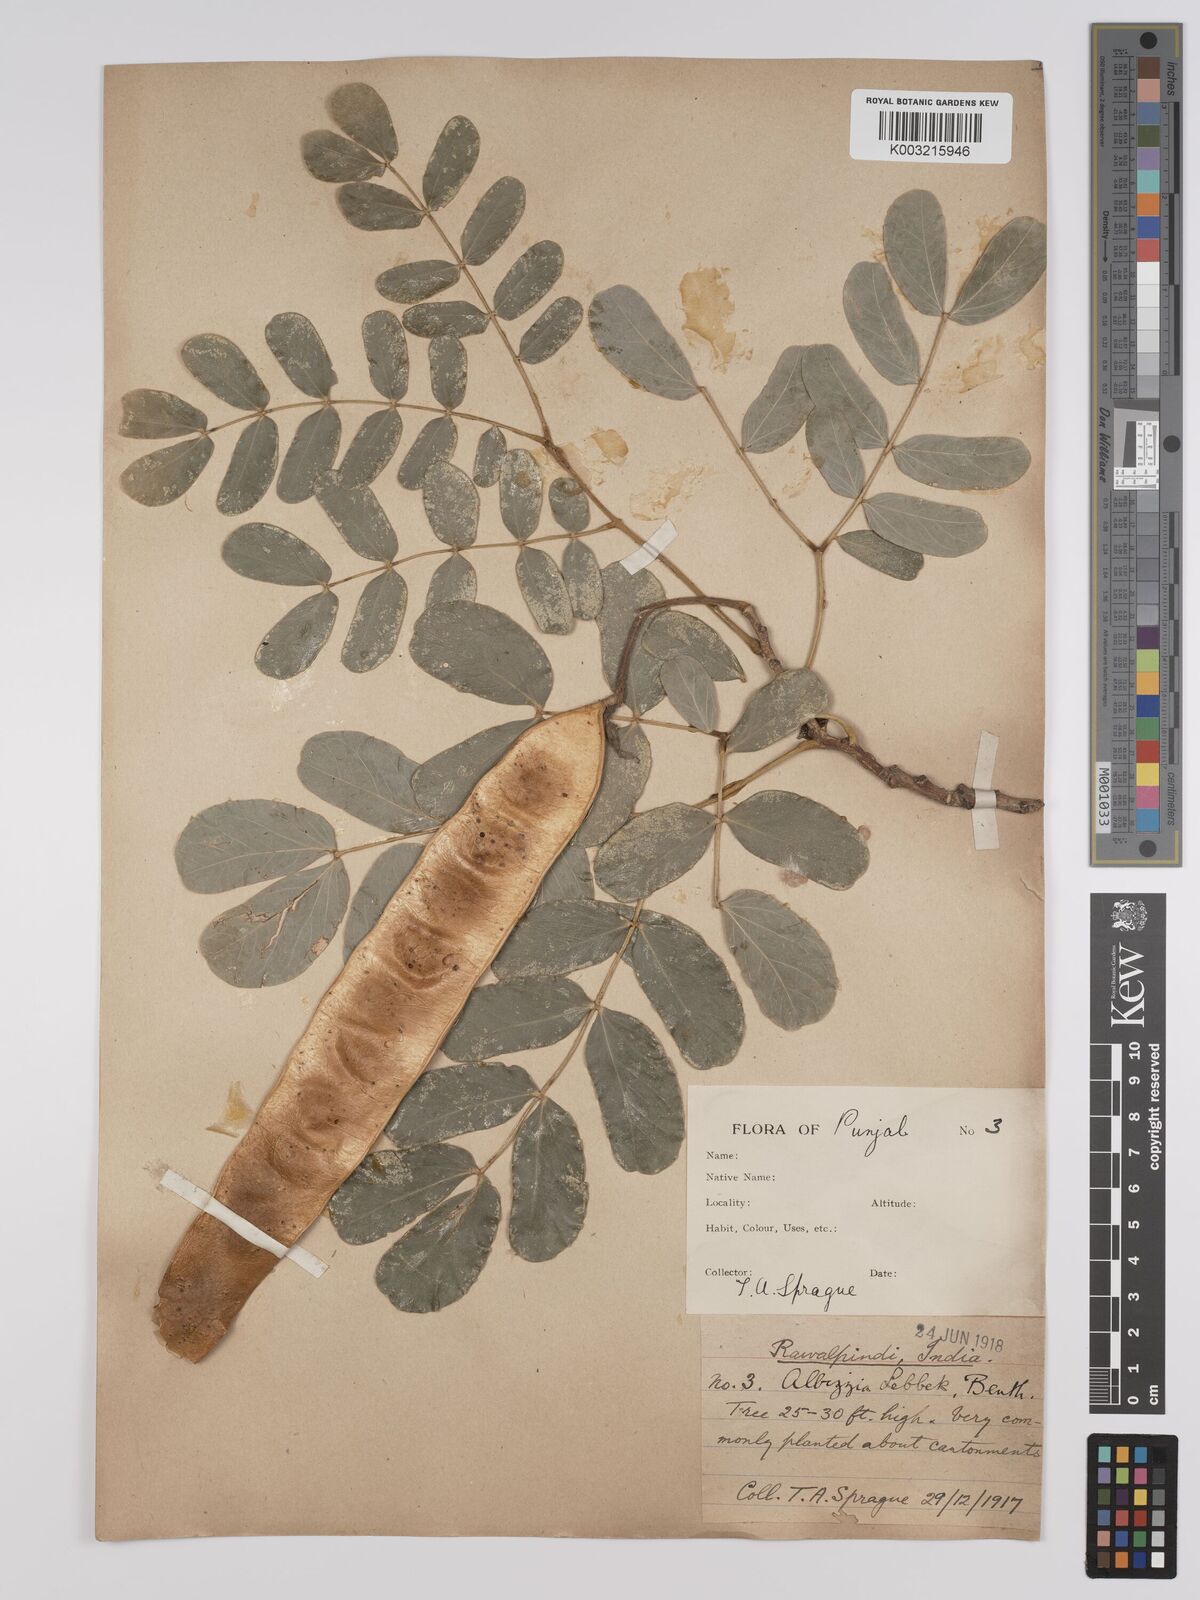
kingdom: Plantae
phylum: Tracheophyta
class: Magnoliopsida
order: Fabales
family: Fabaceae
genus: Albizia
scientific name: Albizia
